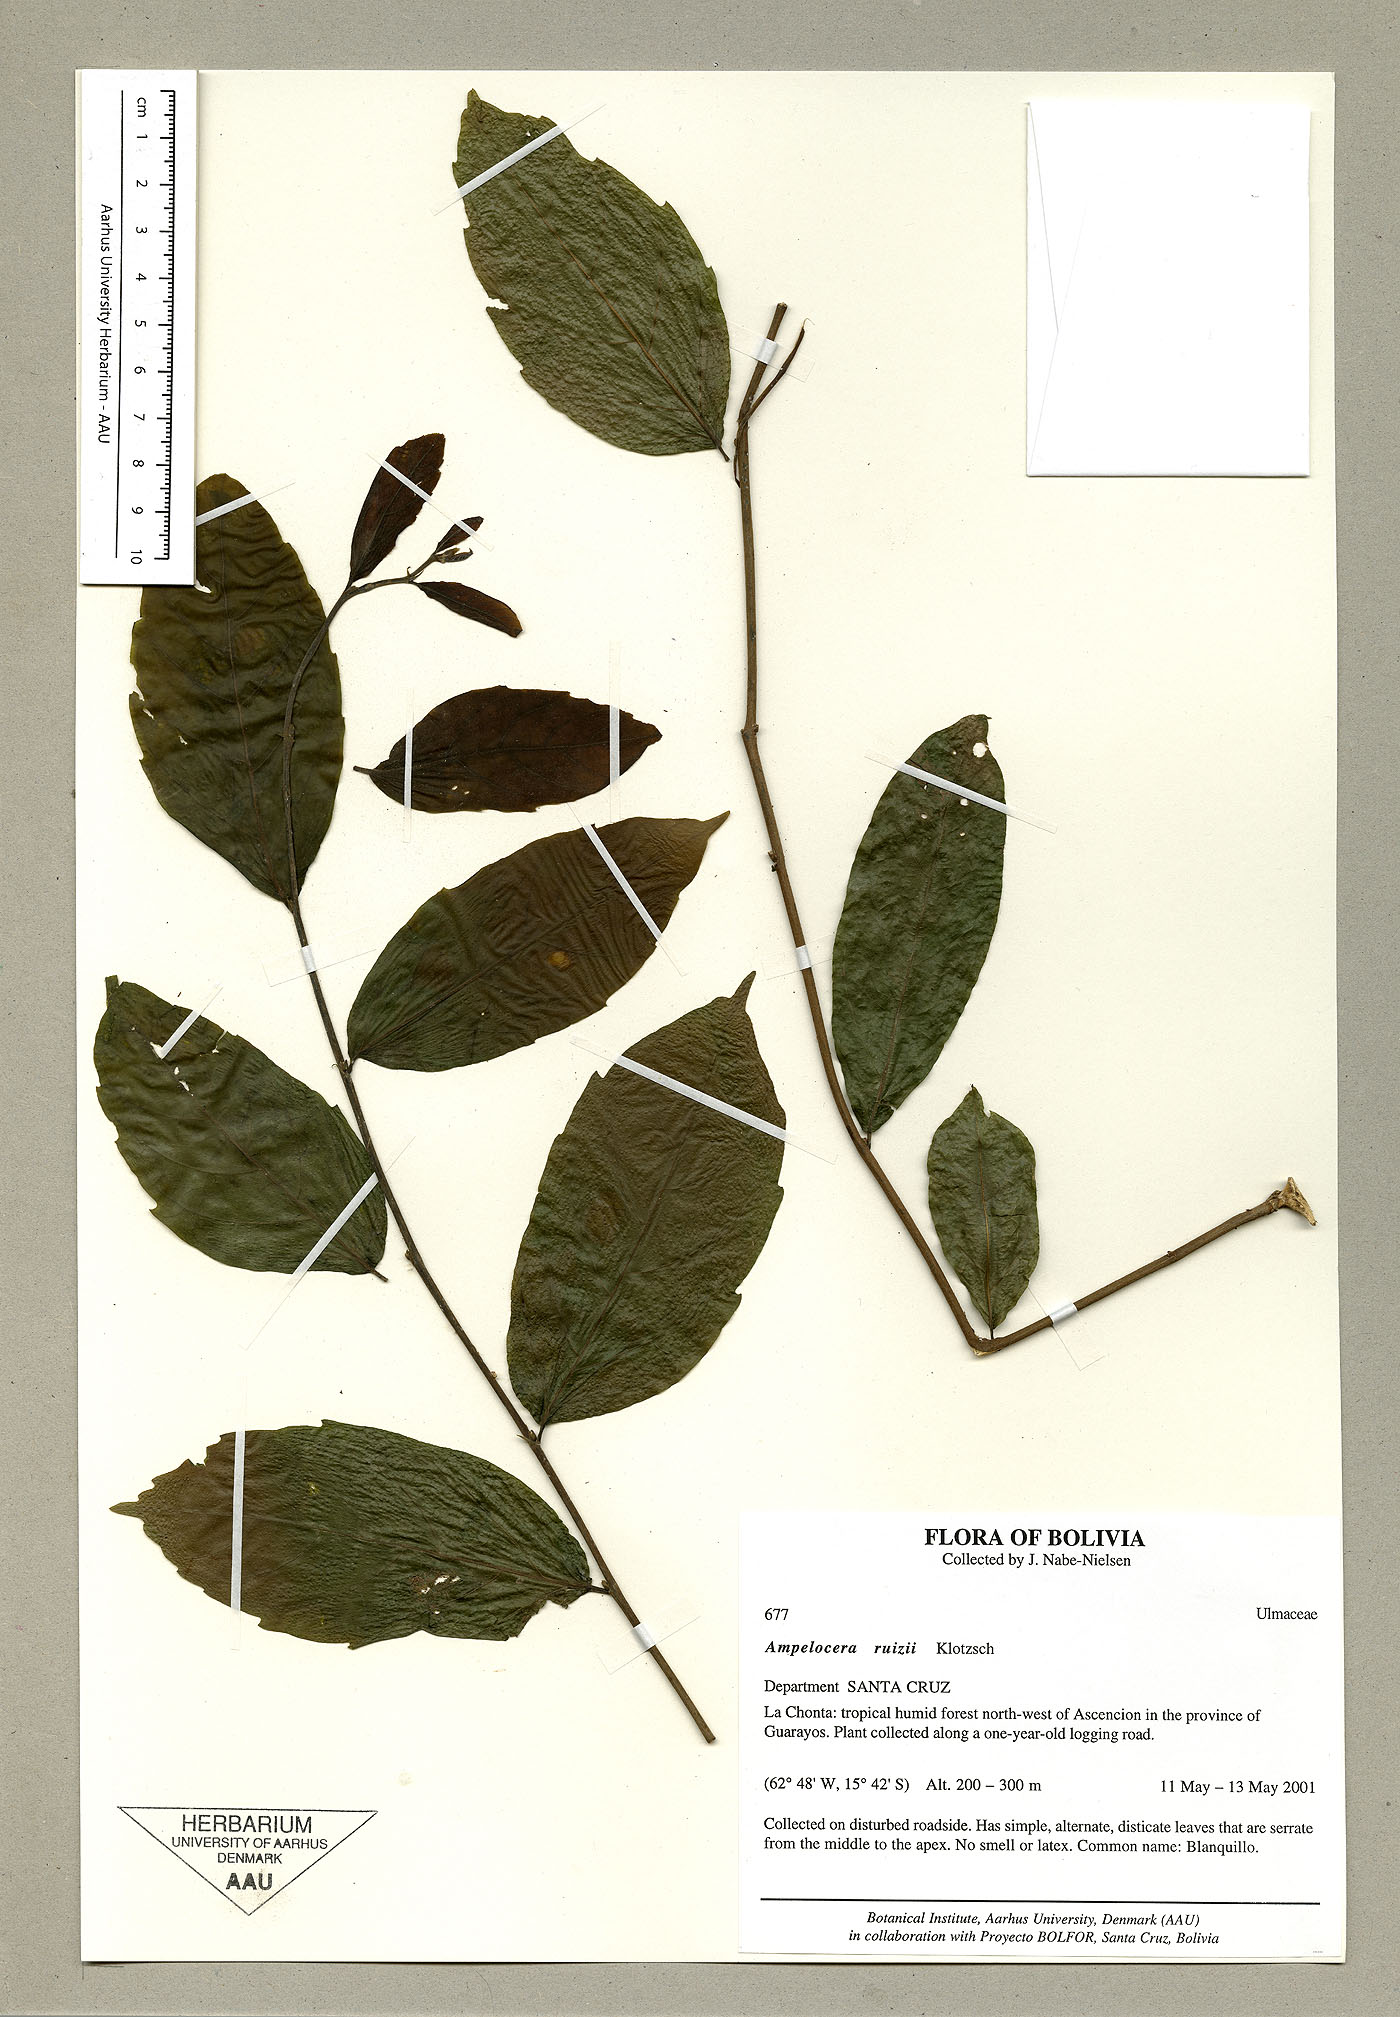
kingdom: Plantae
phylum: Tracheophyta
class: Magnoliopsida
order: Rosales
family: Cannabaceae
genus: Ampelocera
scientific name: Ampelocera ruizii
